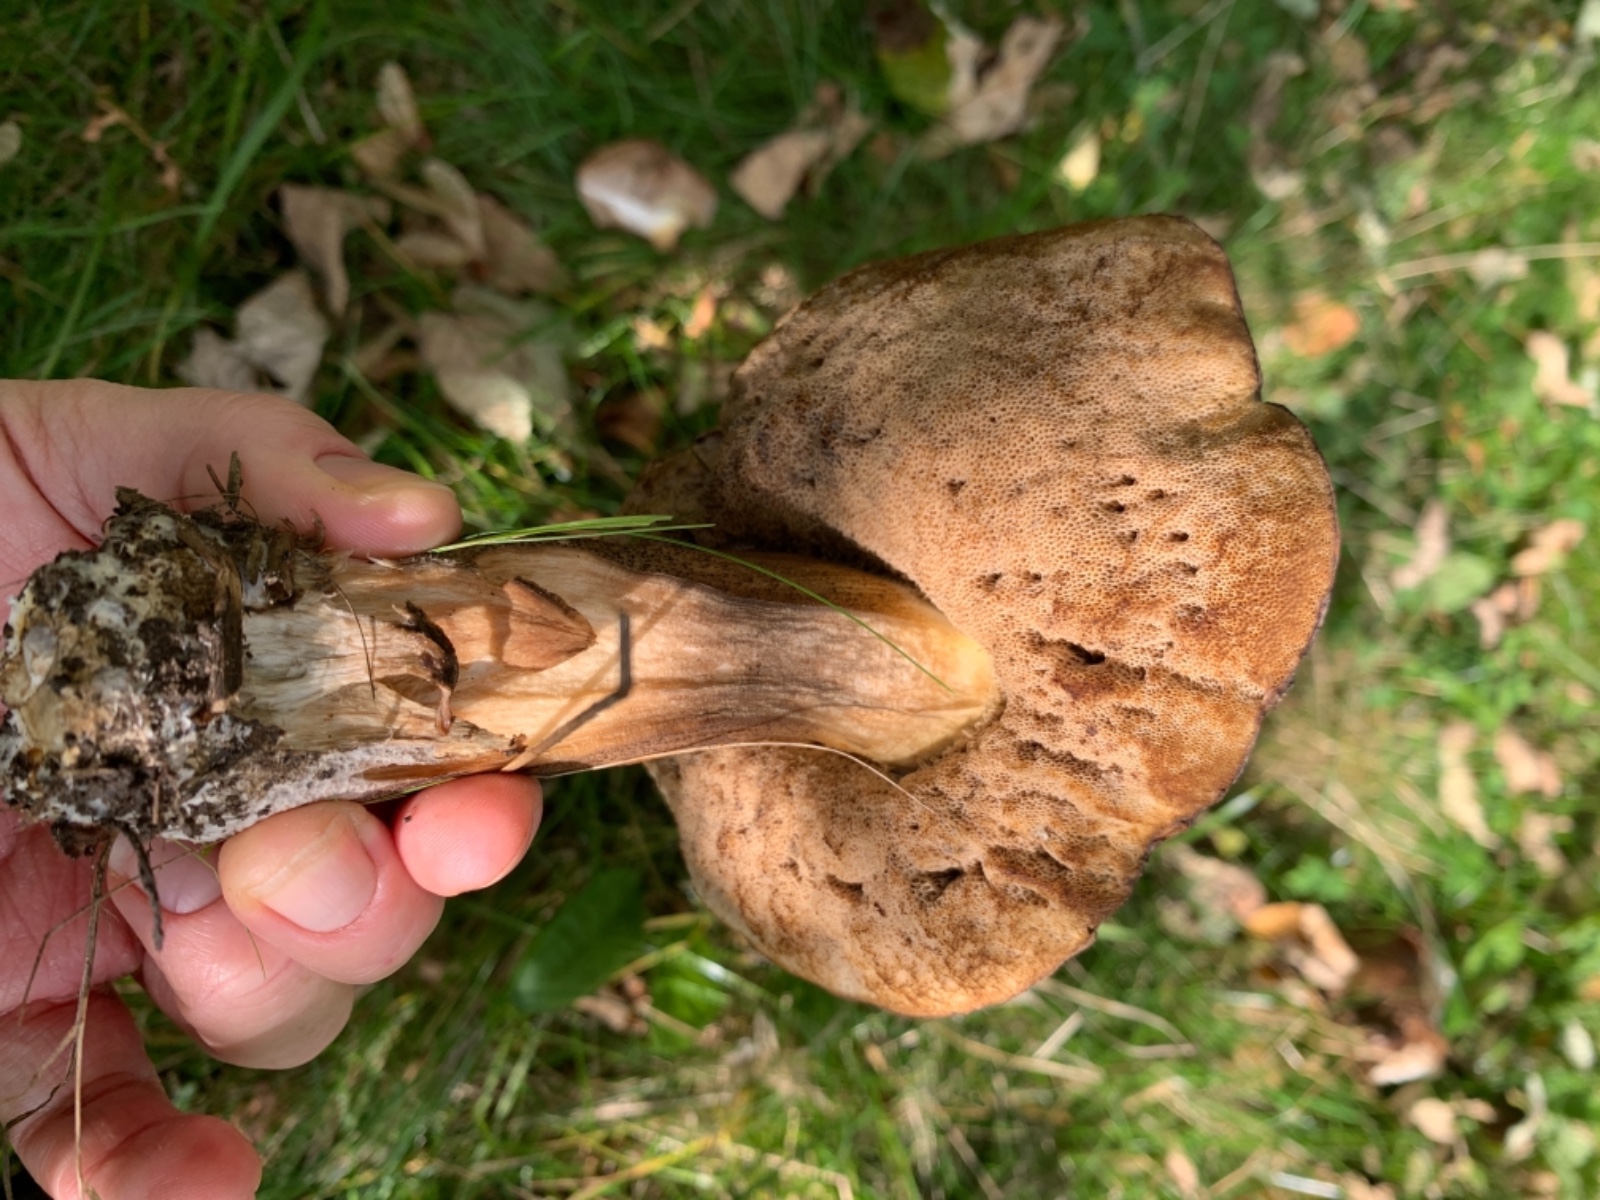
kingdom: Fungi
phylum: Basidiomycota
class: Agaricomycetes
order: Boletales
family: Boletaceae
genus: Leccinum
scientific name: Leccinum
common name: skælrørhat
